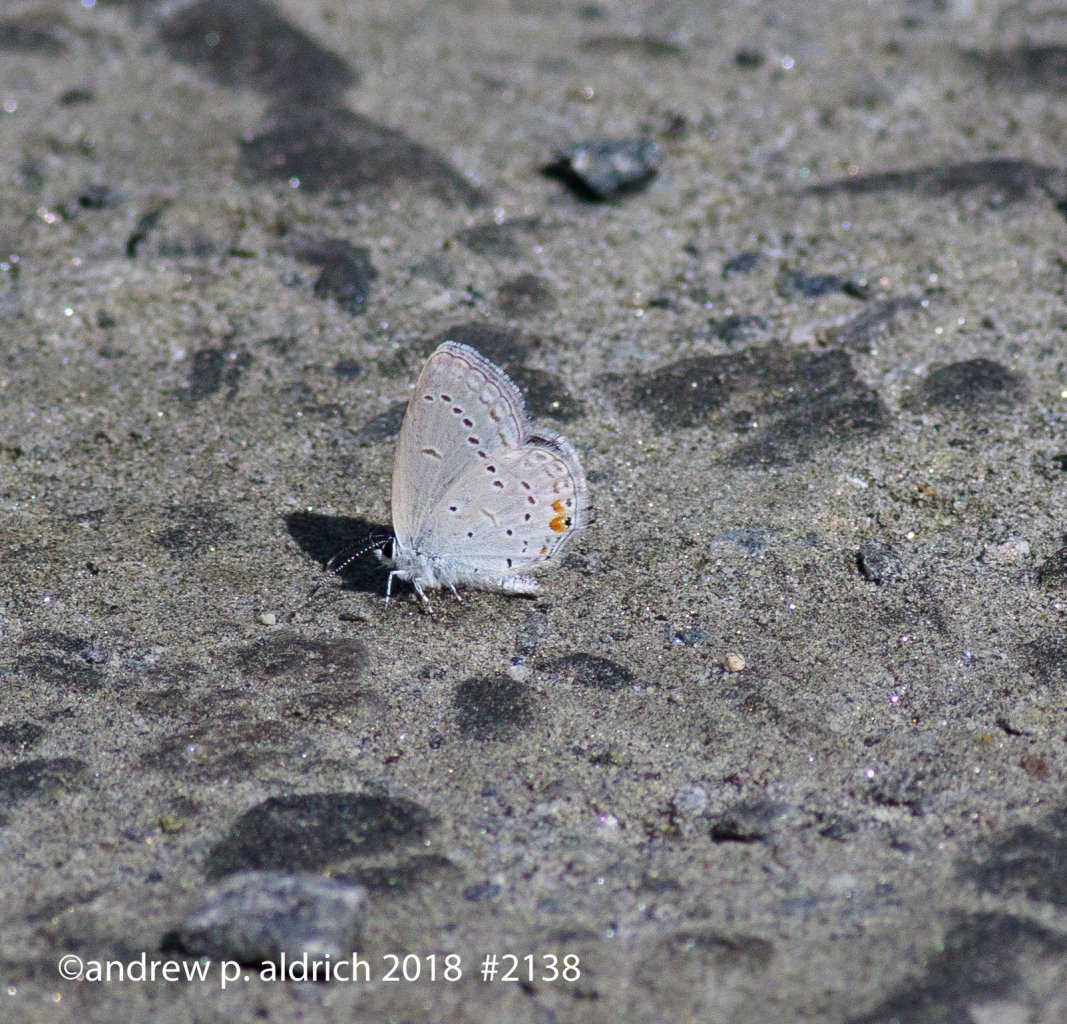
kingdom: Animalia
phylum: Arthropoda
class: Insecta
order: Lepidoptera
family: Lycaenidae
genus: Elkalyce
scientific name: Elkalyce comyntas
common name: Eastern Tailed-Blue
